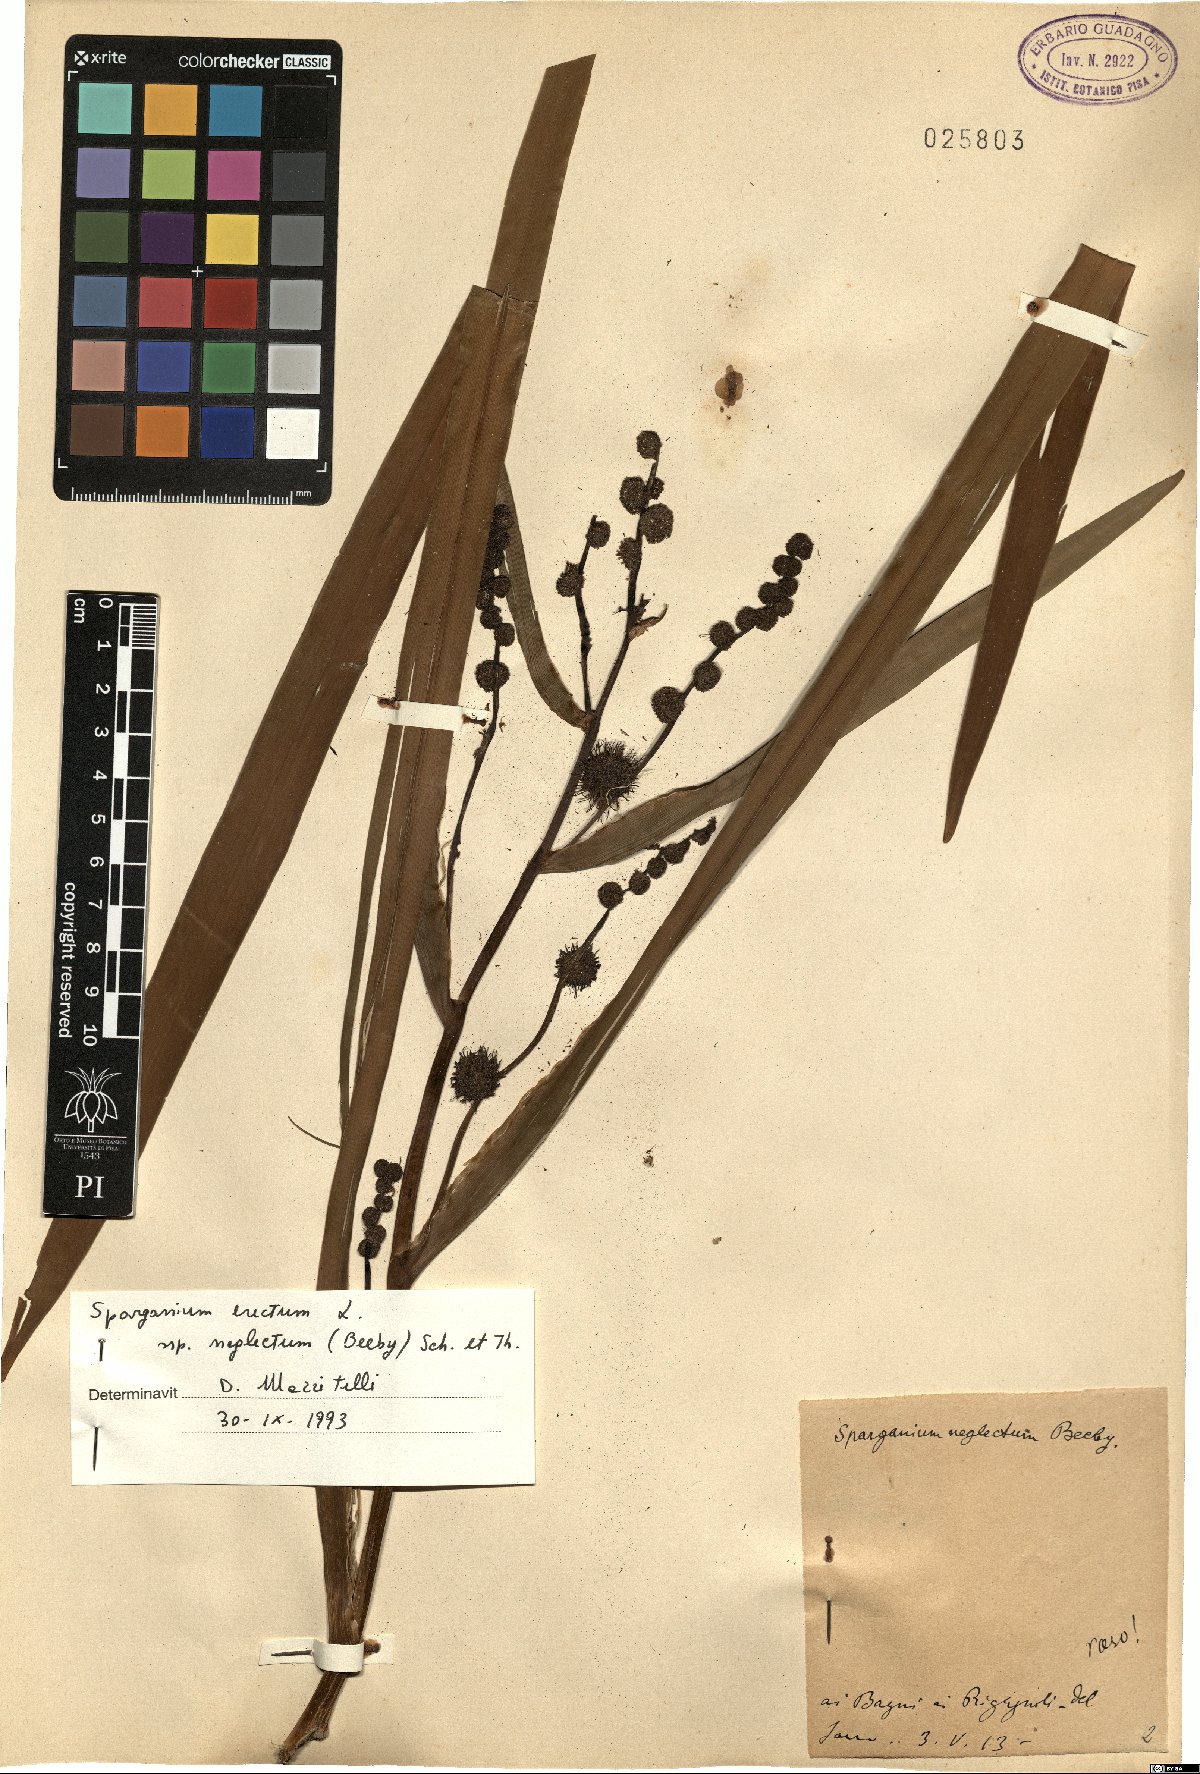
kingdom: Plantae
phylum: Tracheophyta
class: Liliopsida
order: Poales
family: Typhaceae
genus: Sparganium
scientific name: Sparganium erectum
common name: Branched bur-reed
